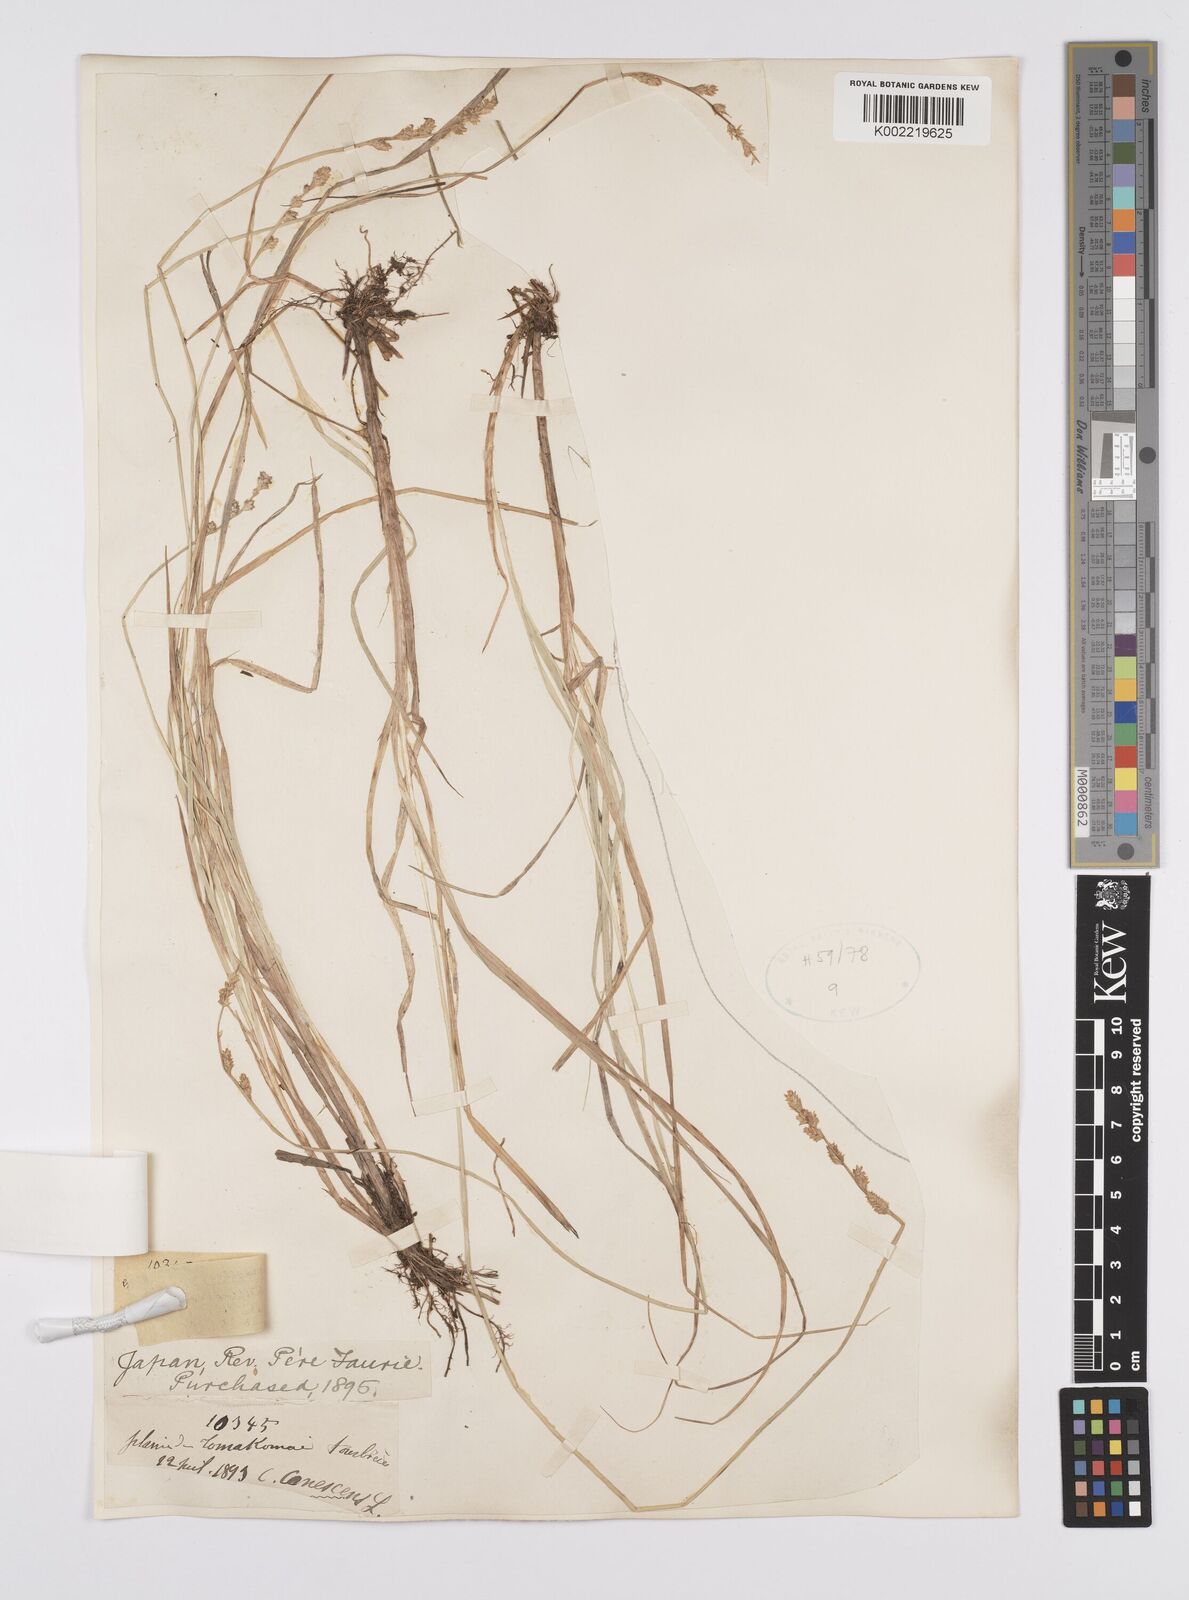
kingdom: Plantae
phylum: Tracheophyta
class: Liliopsida
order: Poales
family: Cyperaceae
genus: Carex
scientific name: Carex canescens
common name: White sedge
